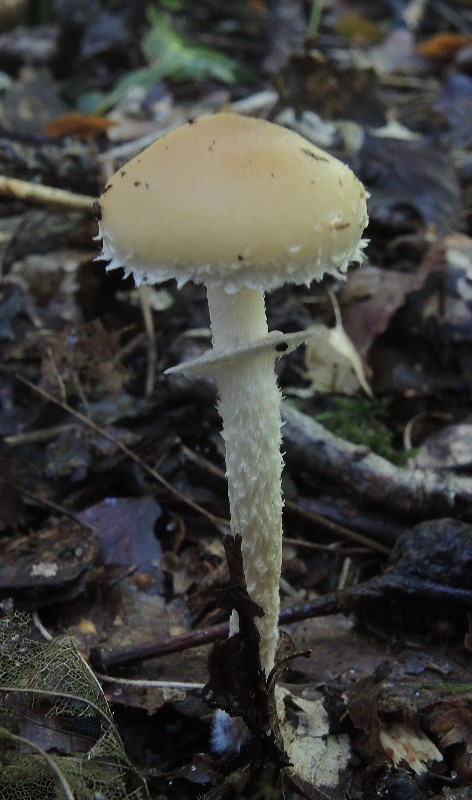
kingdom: Fungi
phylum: Basidiomycota
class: Agaricomycetes
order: Agaricales
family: Strophariaceae
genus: Leratiomyces
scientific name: Leratiomyces squamosus
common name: skællet bredblad
